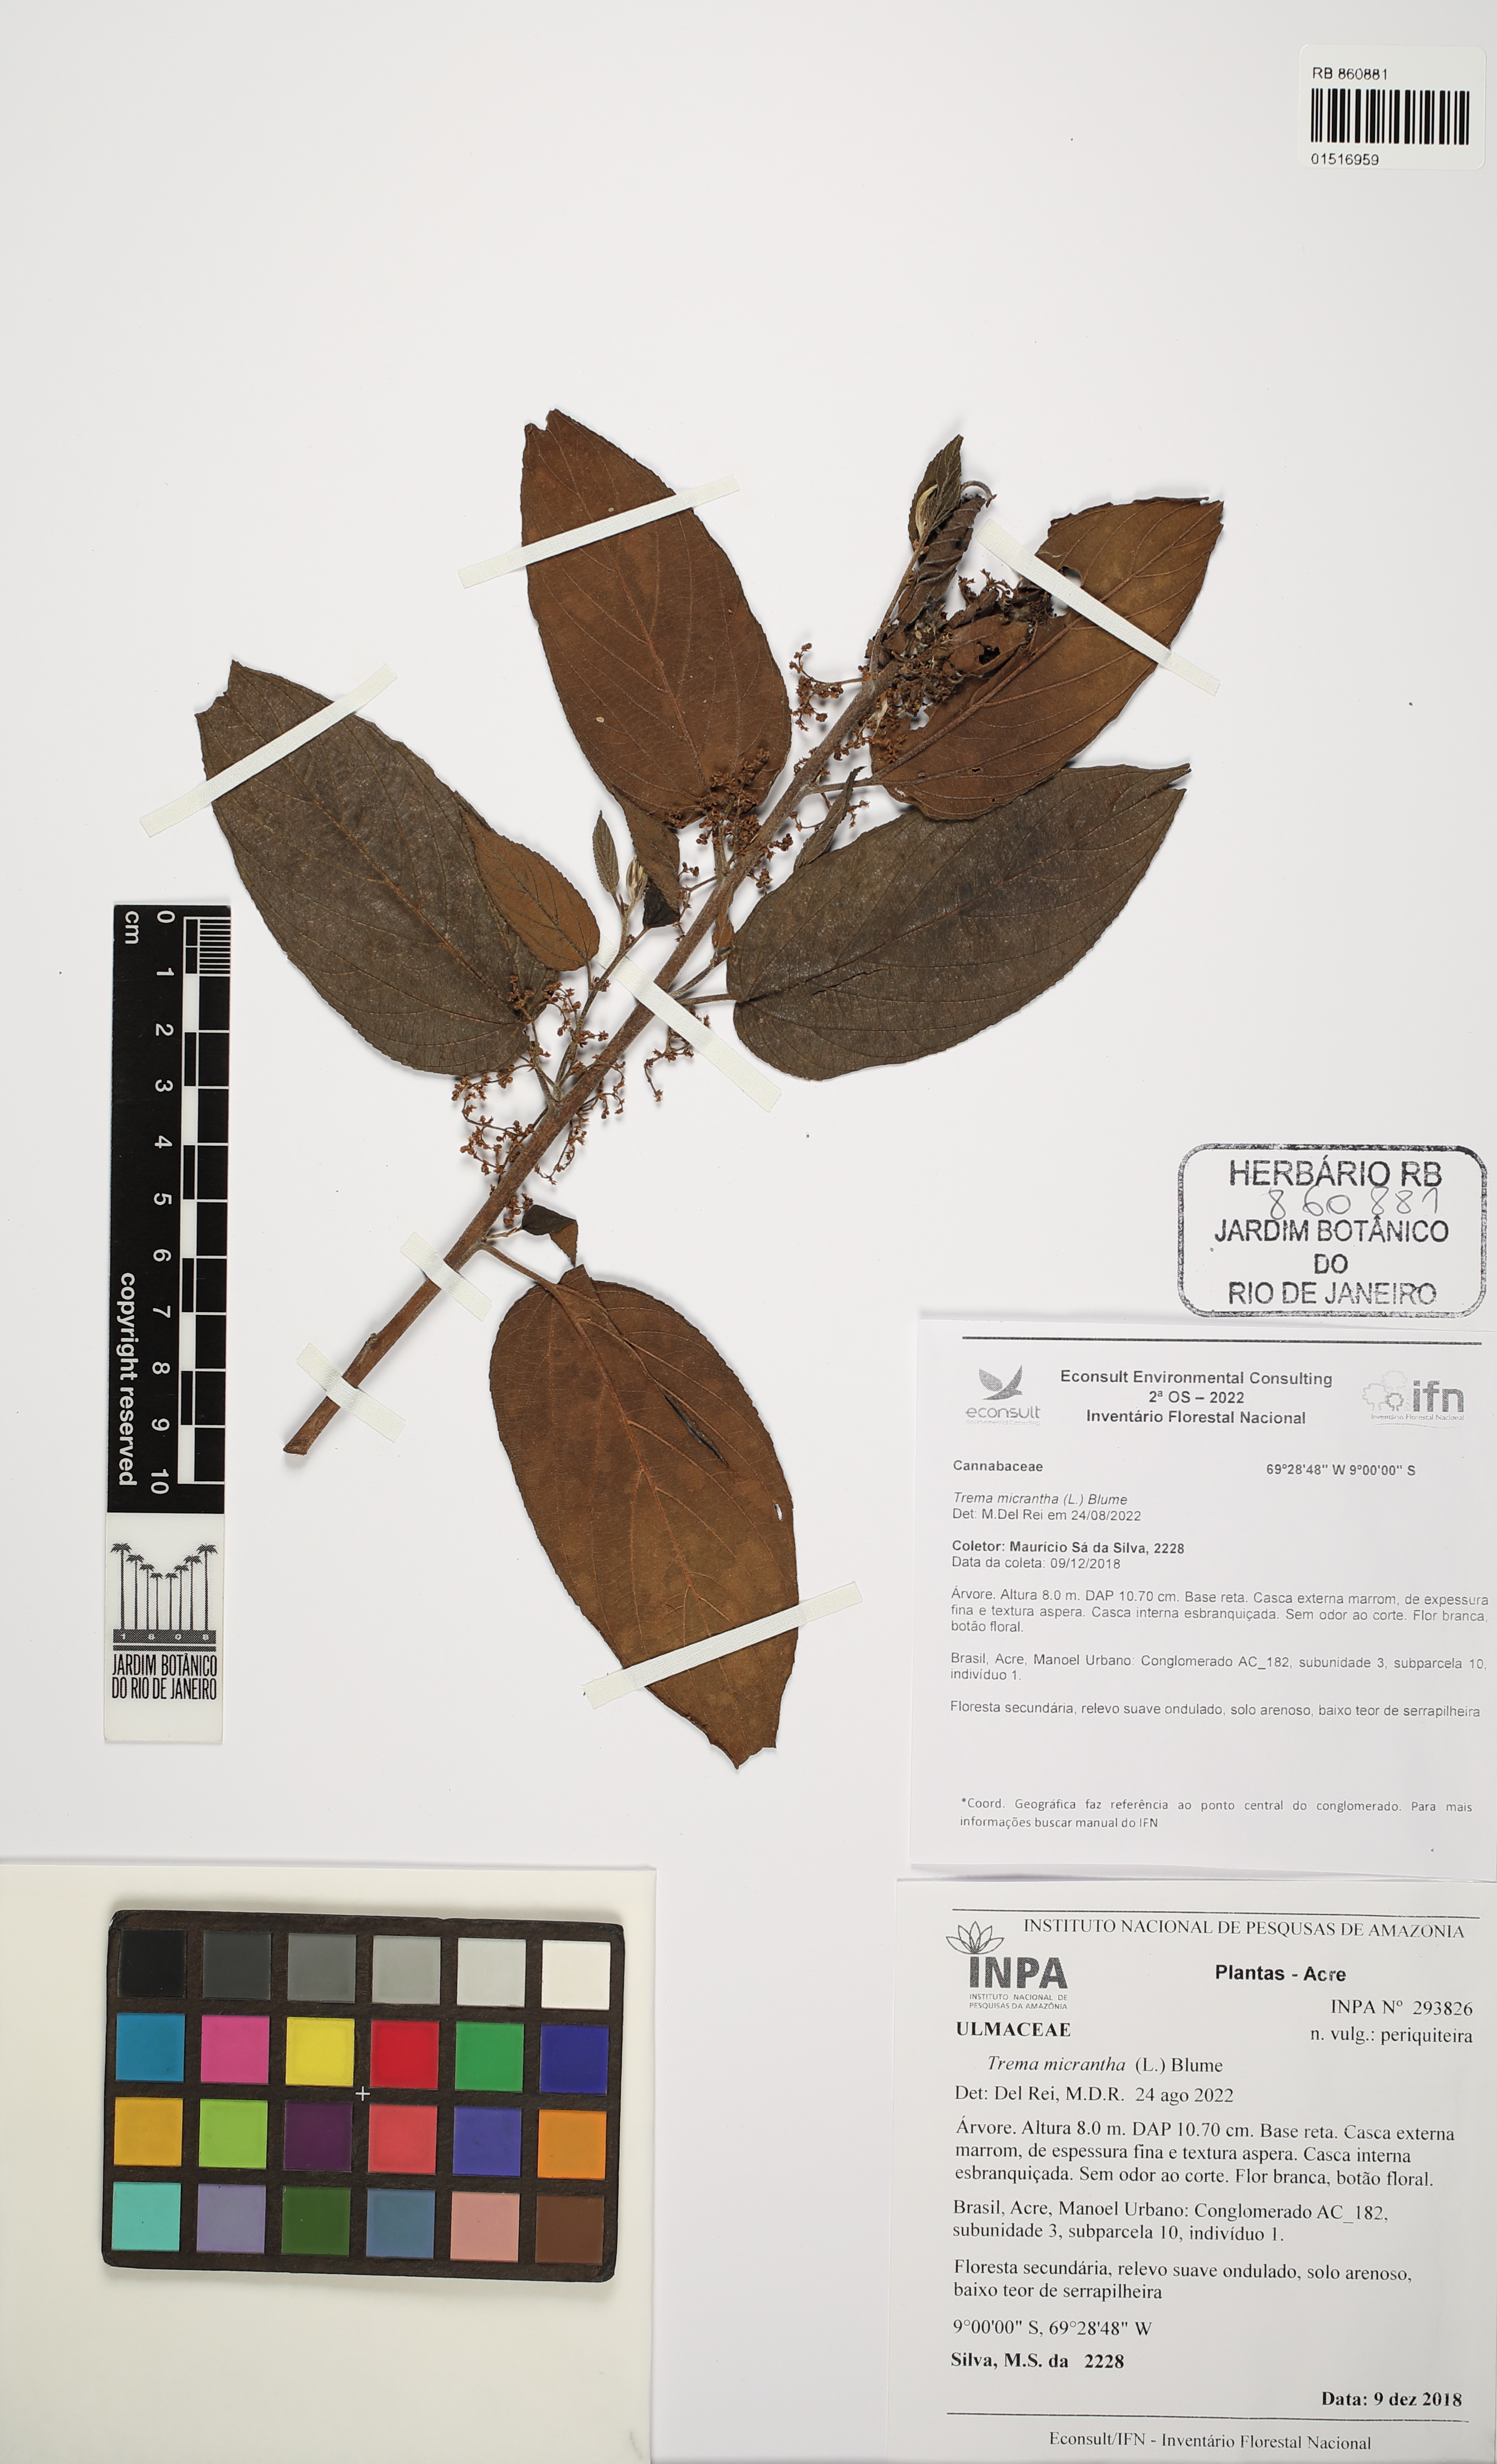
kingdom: Plantae
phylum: Tracheophyta
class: Magnoliopsida
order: Rosales
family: Cannabaceae
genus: Trema
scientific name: Trema micranthum
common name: Jamaican nettletree
